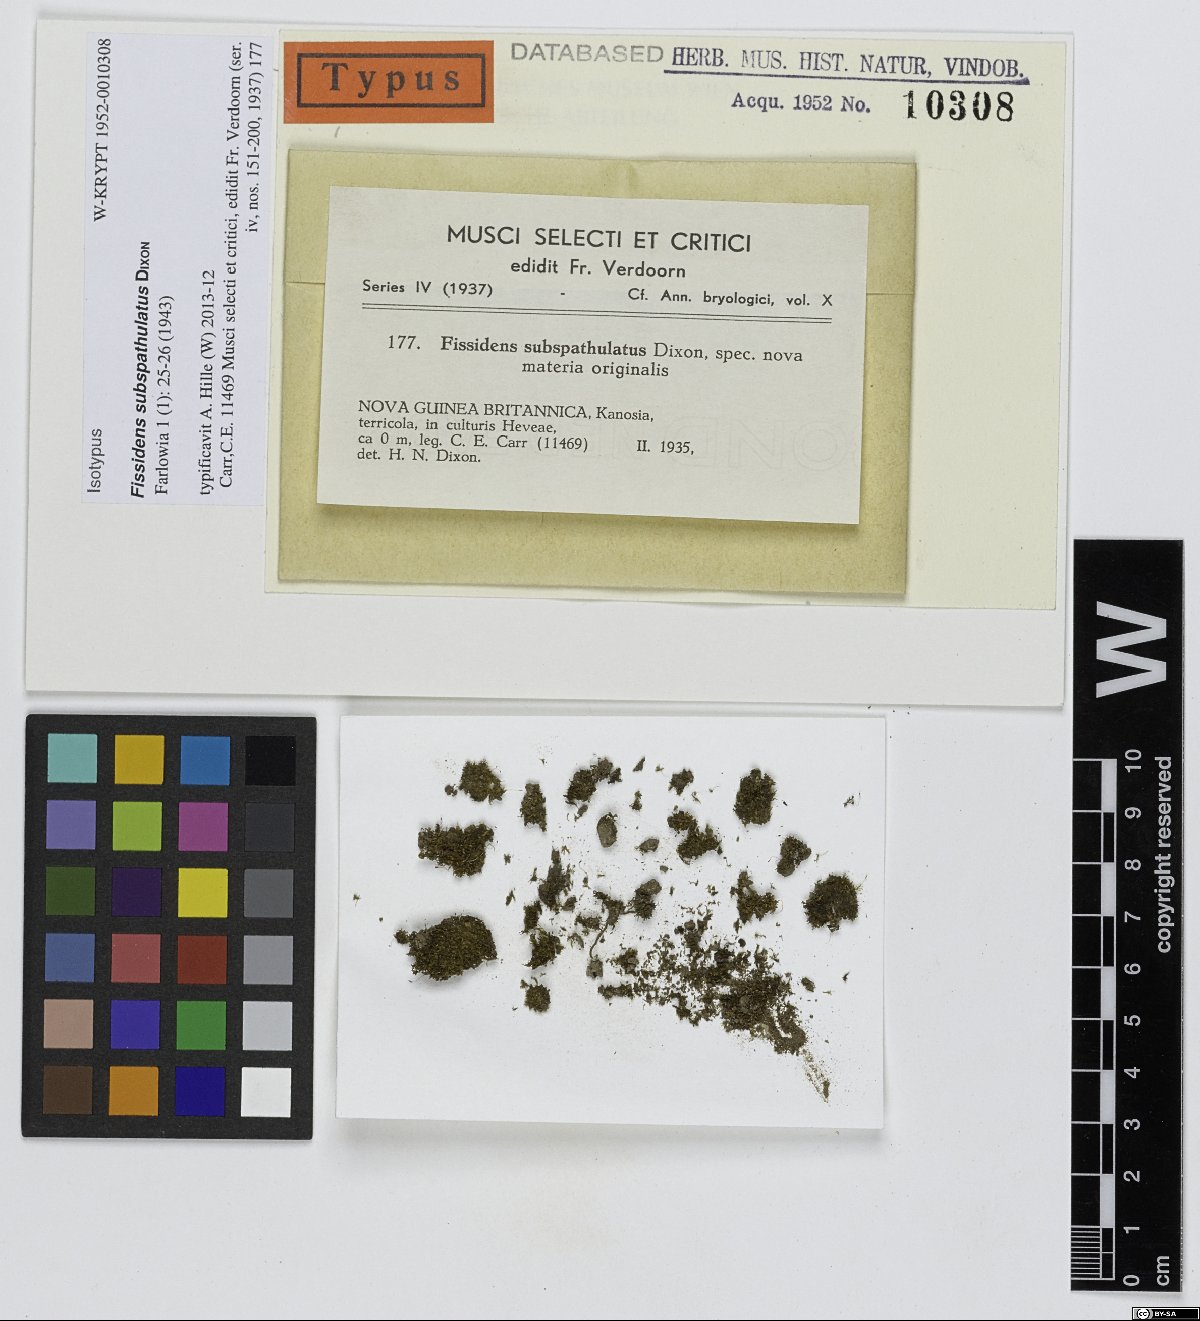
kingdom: Plantae
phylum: Bryophyta
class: Bryopsida
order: Dicranales
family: Fissidentaceae
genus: Fissidens
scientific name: Fissidens gardneri
